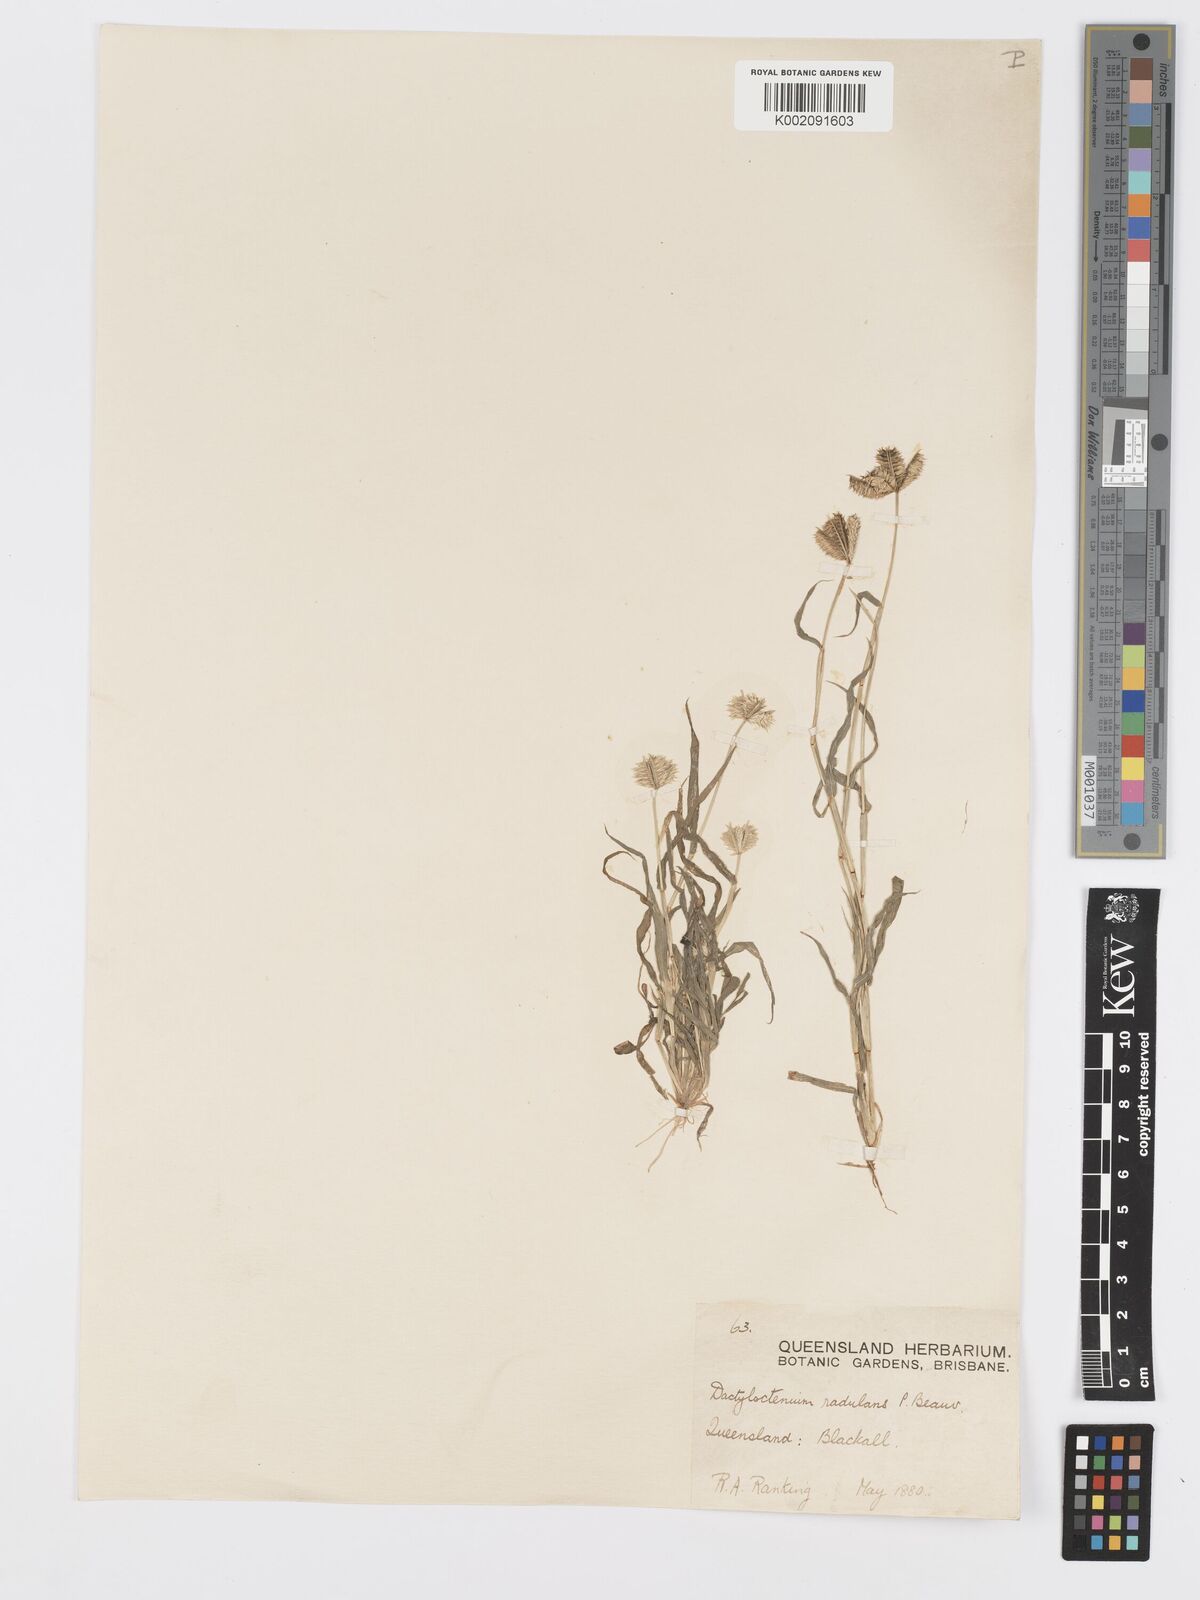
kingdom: Plantae
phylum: Tracheophyta
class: Liliopsida
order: Poales
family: Poaceae
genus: Dactyloctenium
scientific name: Dactyloctenium radulans
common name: Button-grass
